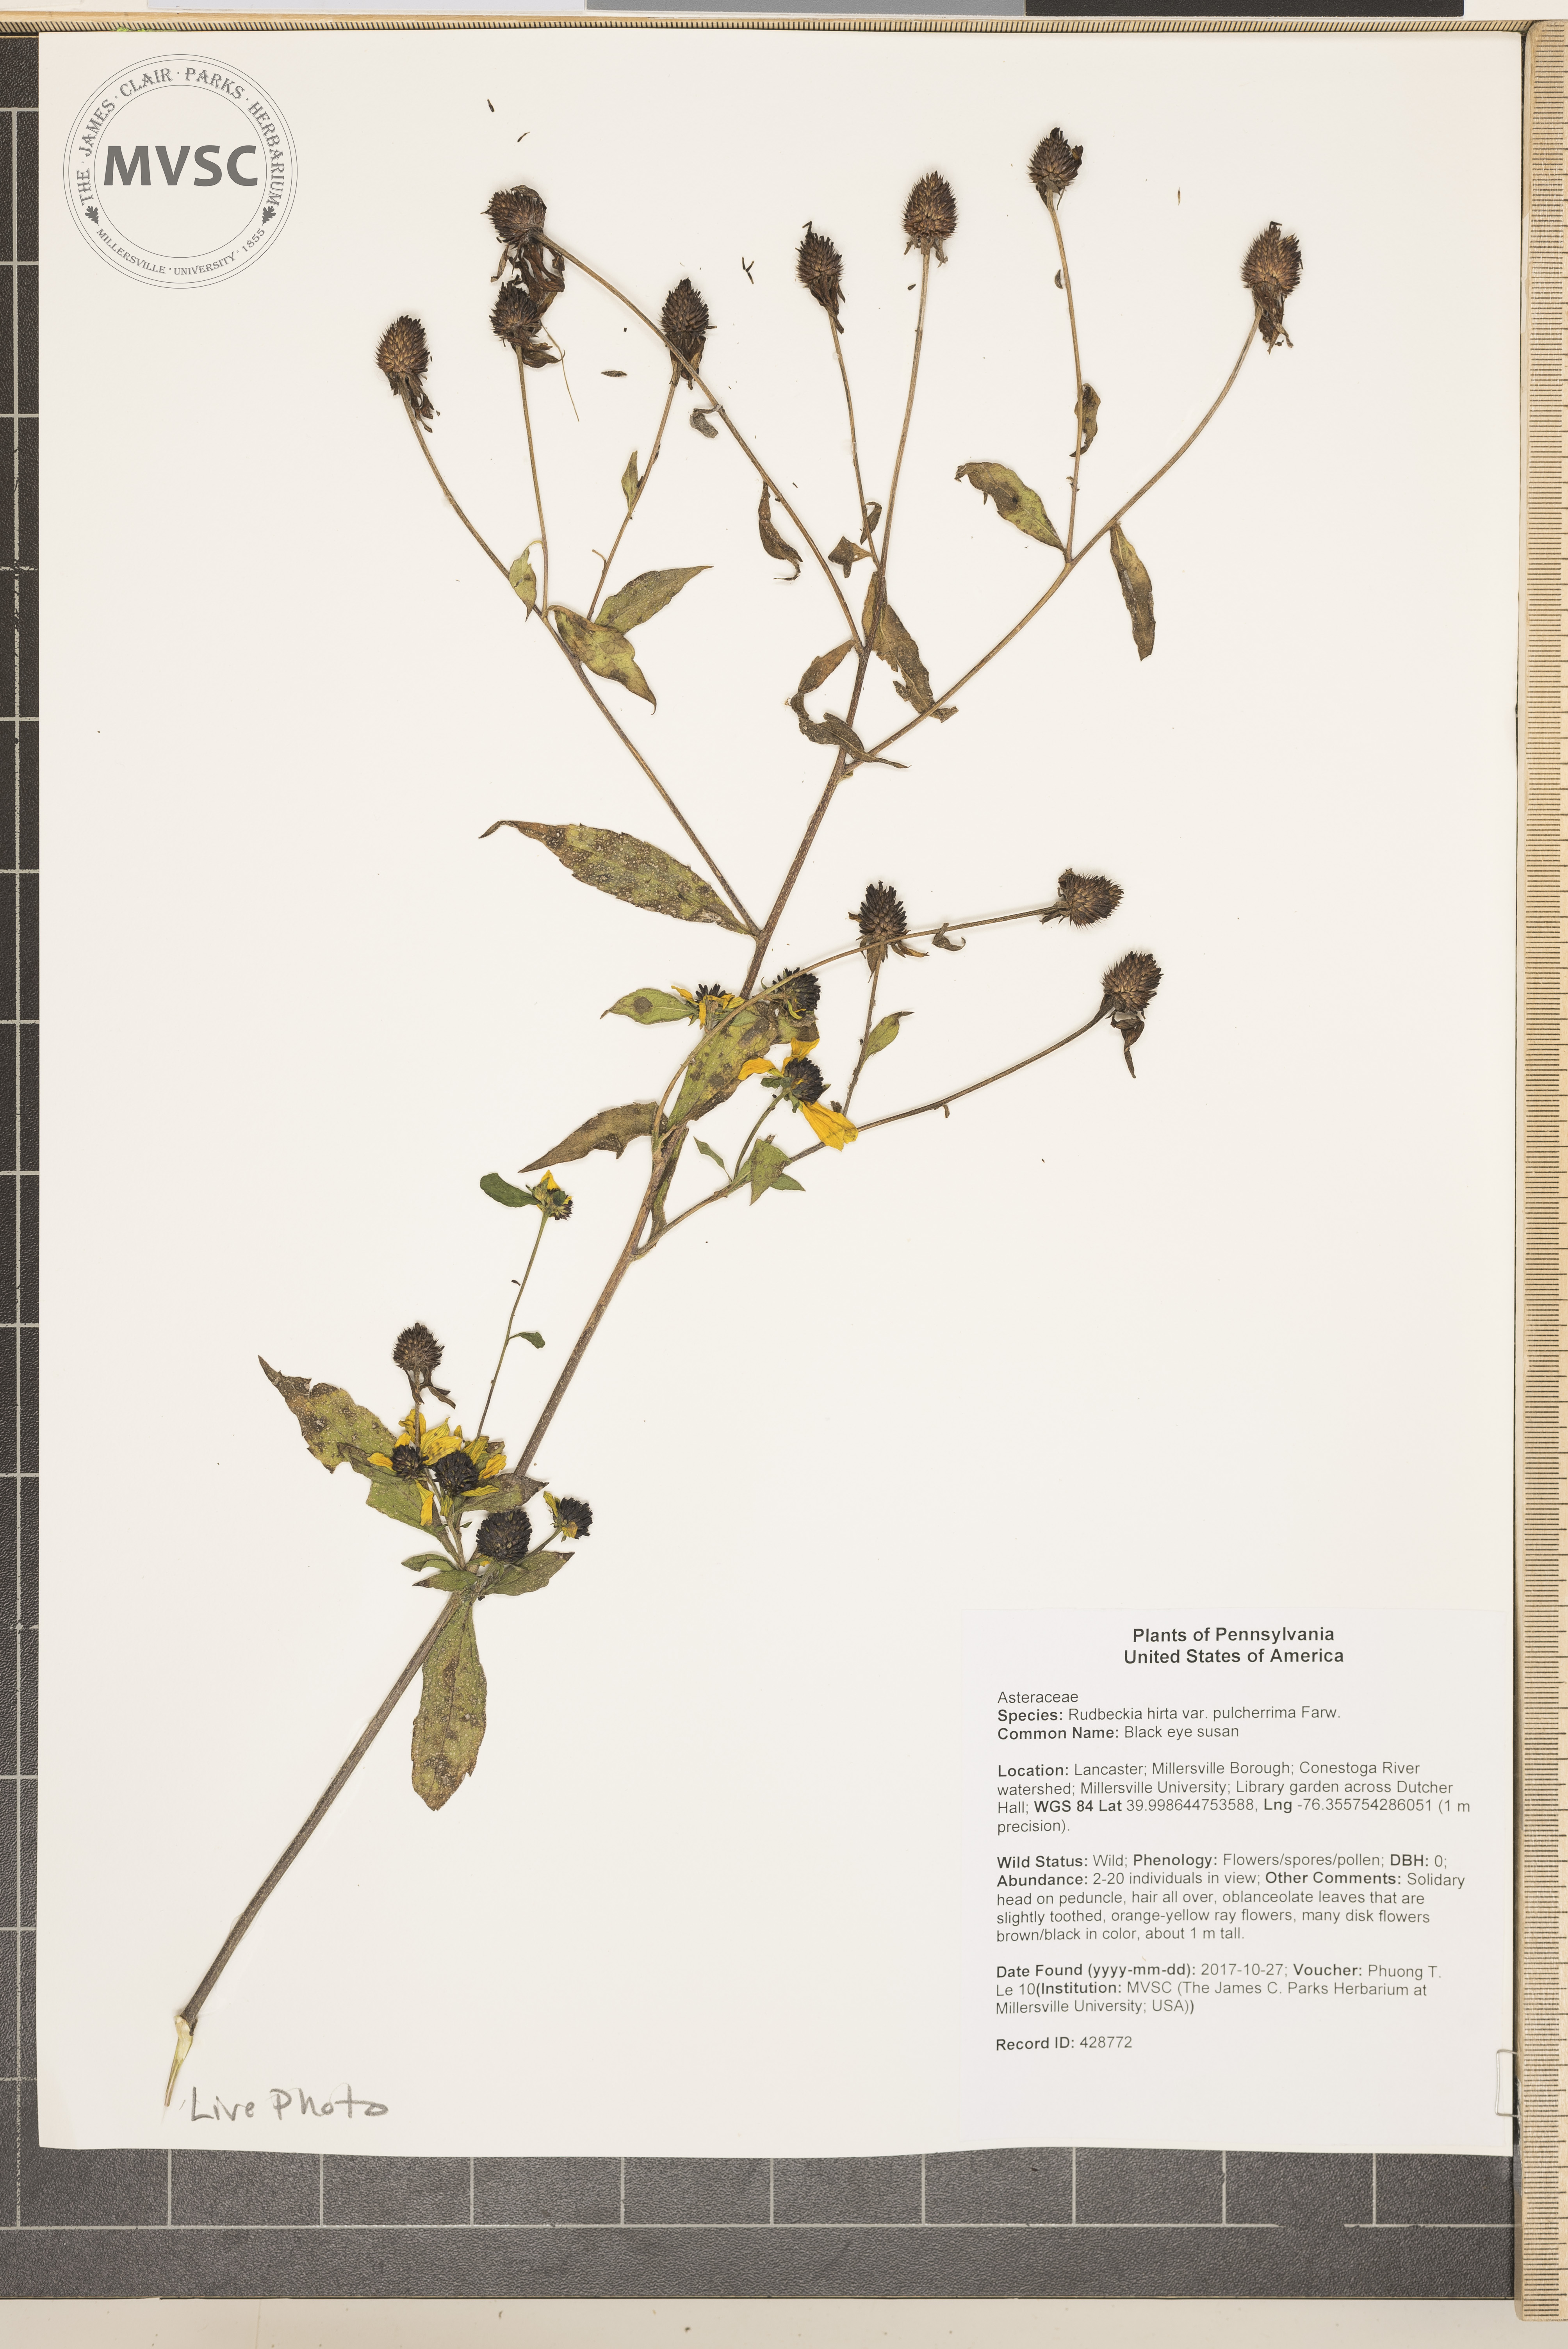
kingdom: Plantae
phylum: Tracheophyta
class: Magnoliopsida
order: Asterales
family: Asteraceae
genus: Rudbeckia
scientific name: Rudbeckia hirta
